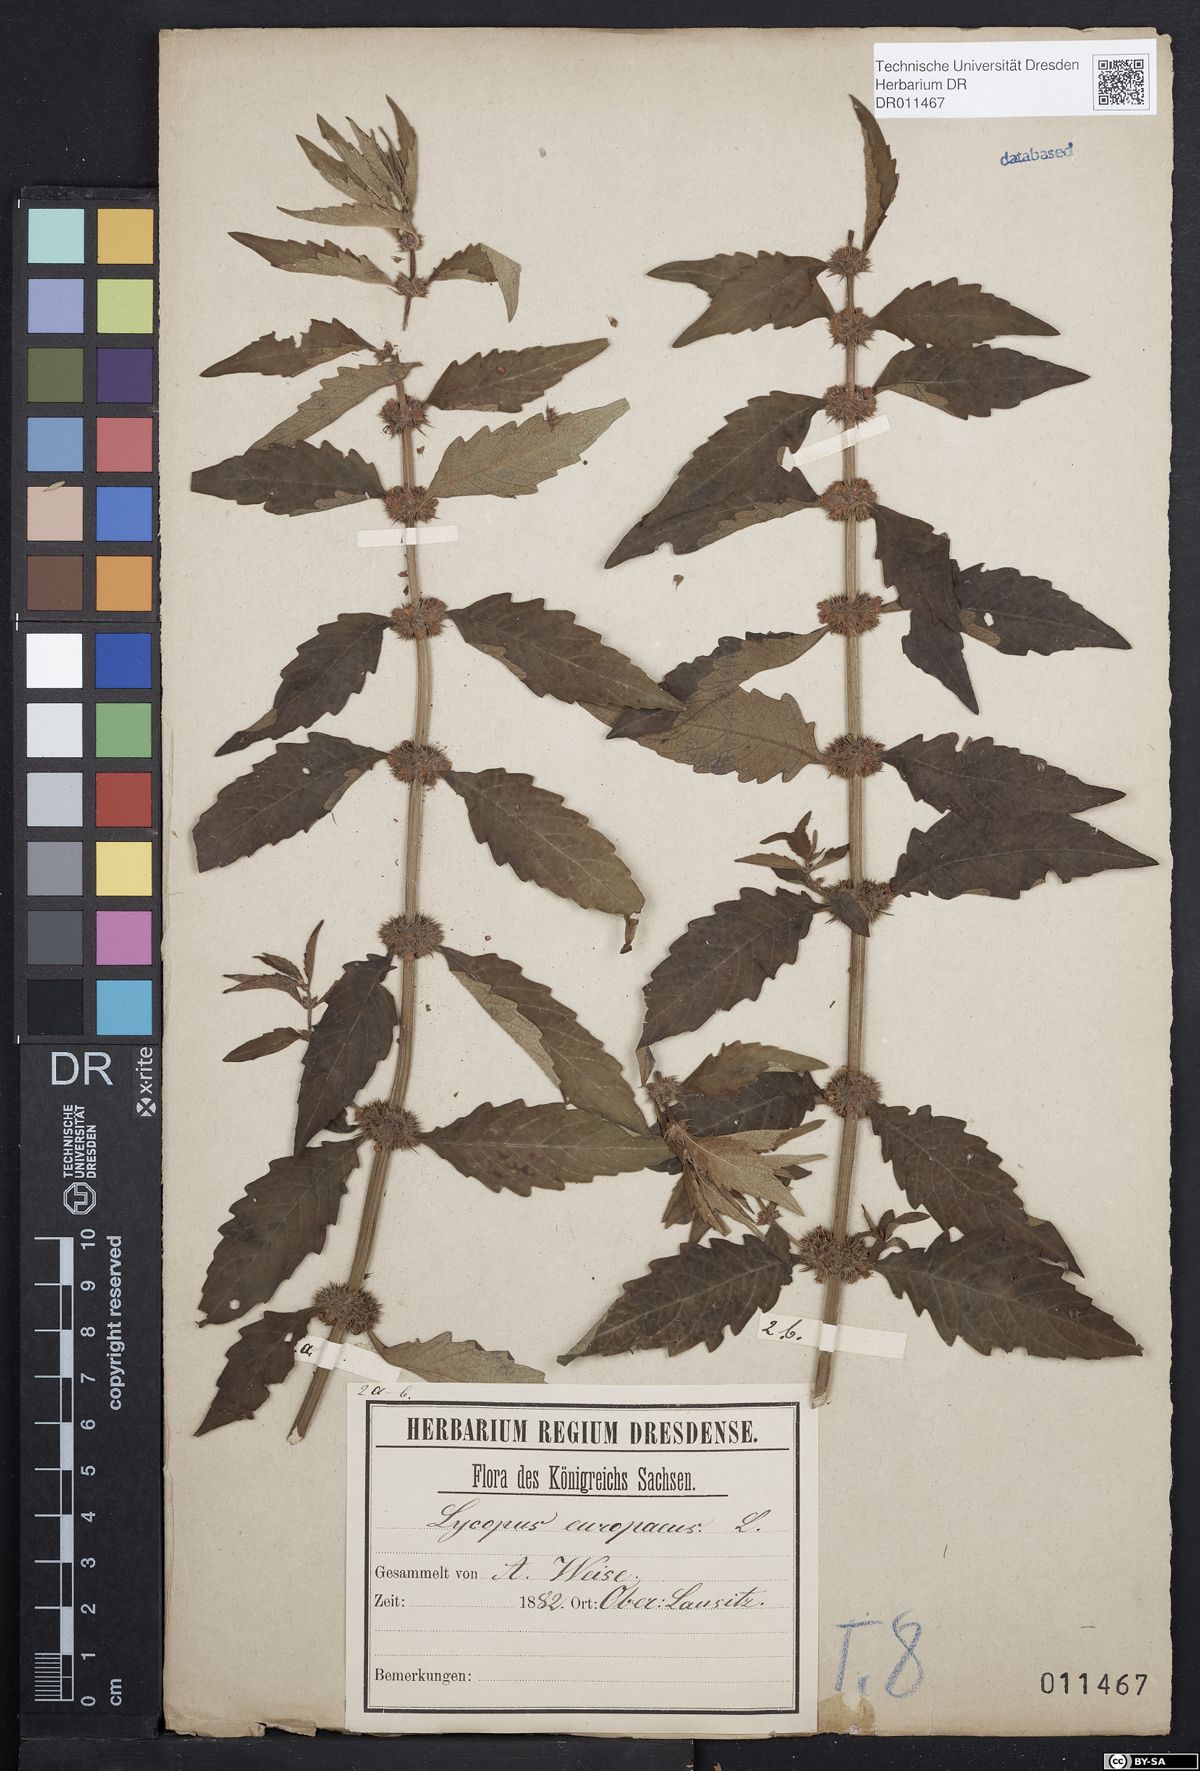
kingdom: Plantae
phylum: Tracheophyta
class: Magnoliopsida
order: Lamiales
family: Lamiaceae
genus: Lycopus
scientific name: Lycopus europaeus
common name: European bugleweed
